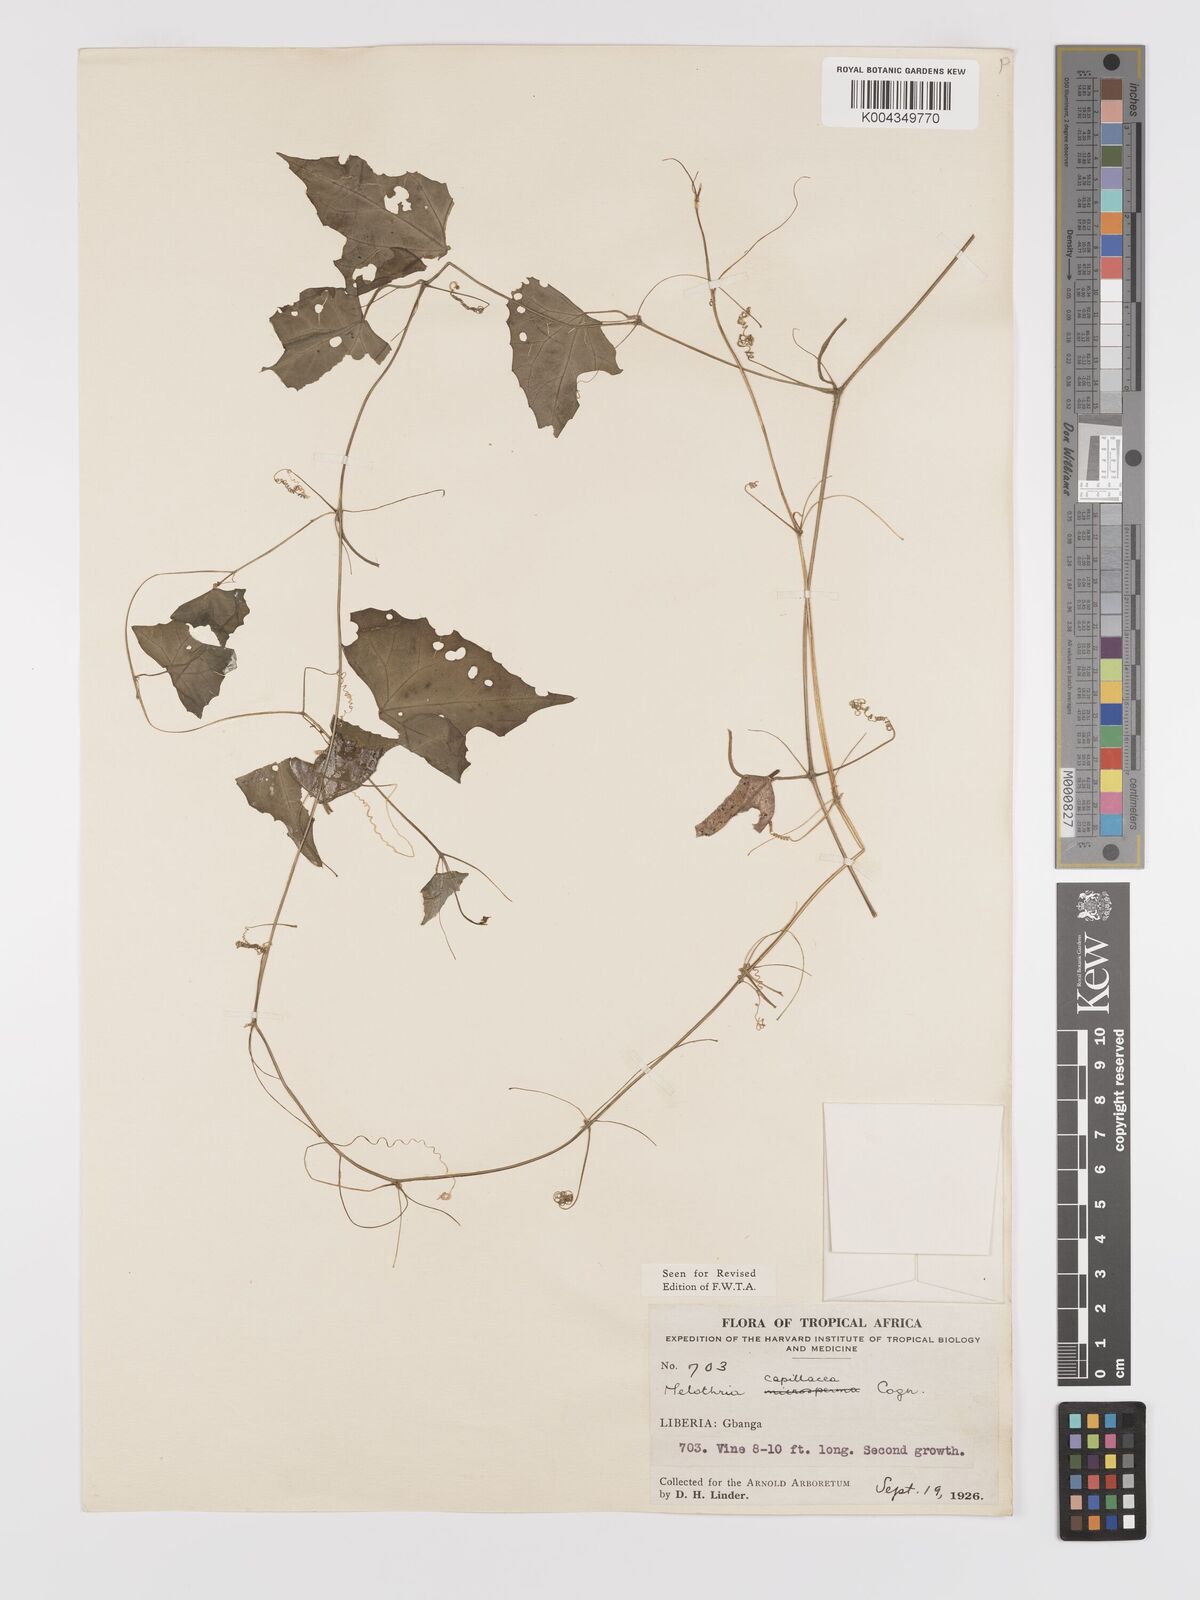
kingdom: Plantae
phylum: Tracheophyta
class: Magnoliopsida
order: Cucurbitales
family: Cucurbitaceae
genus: Zehneria
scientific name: Zehneria capillacea
